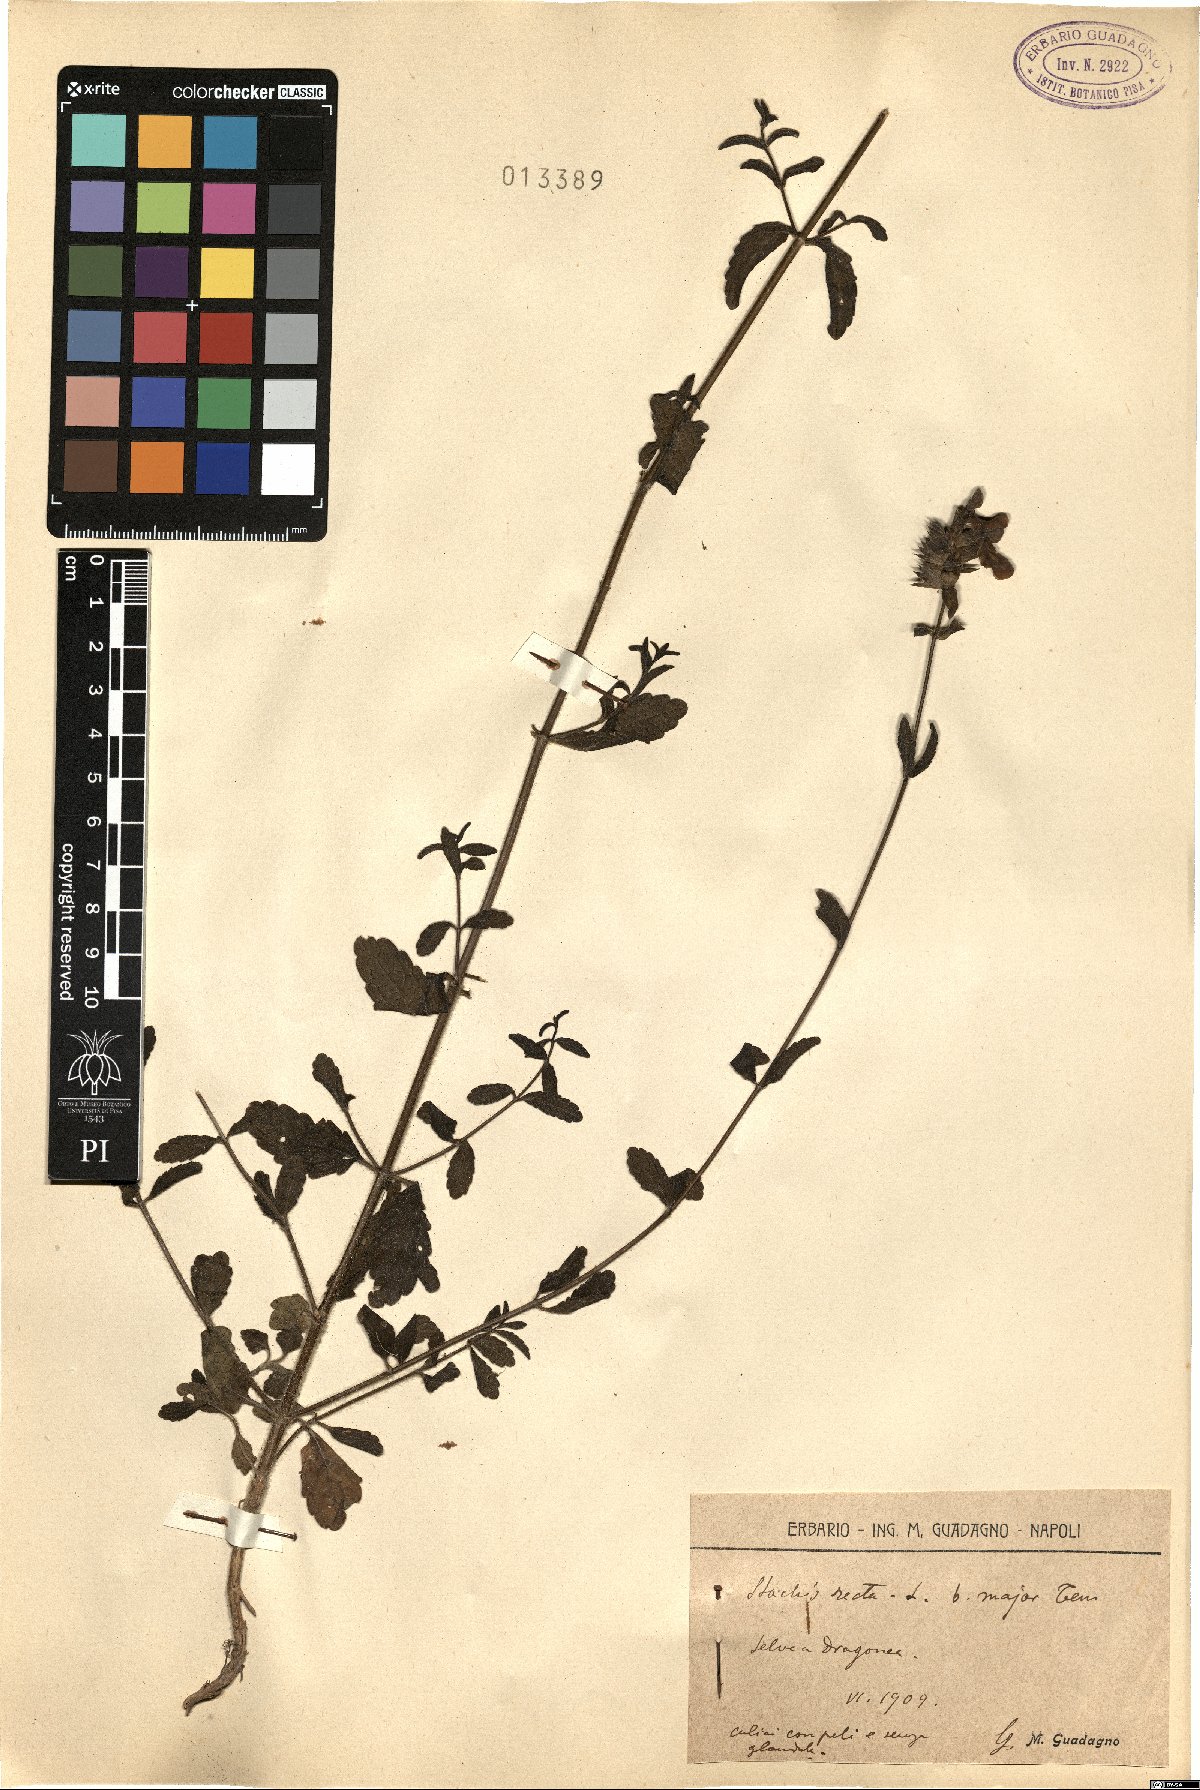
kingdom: Plantae
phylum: Tracheophyta
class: Magnoliopsida
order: Lamiales
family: Lamiaceae
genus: Stachys
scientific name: Stachys recta
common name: Perennial yellow-woundwort
